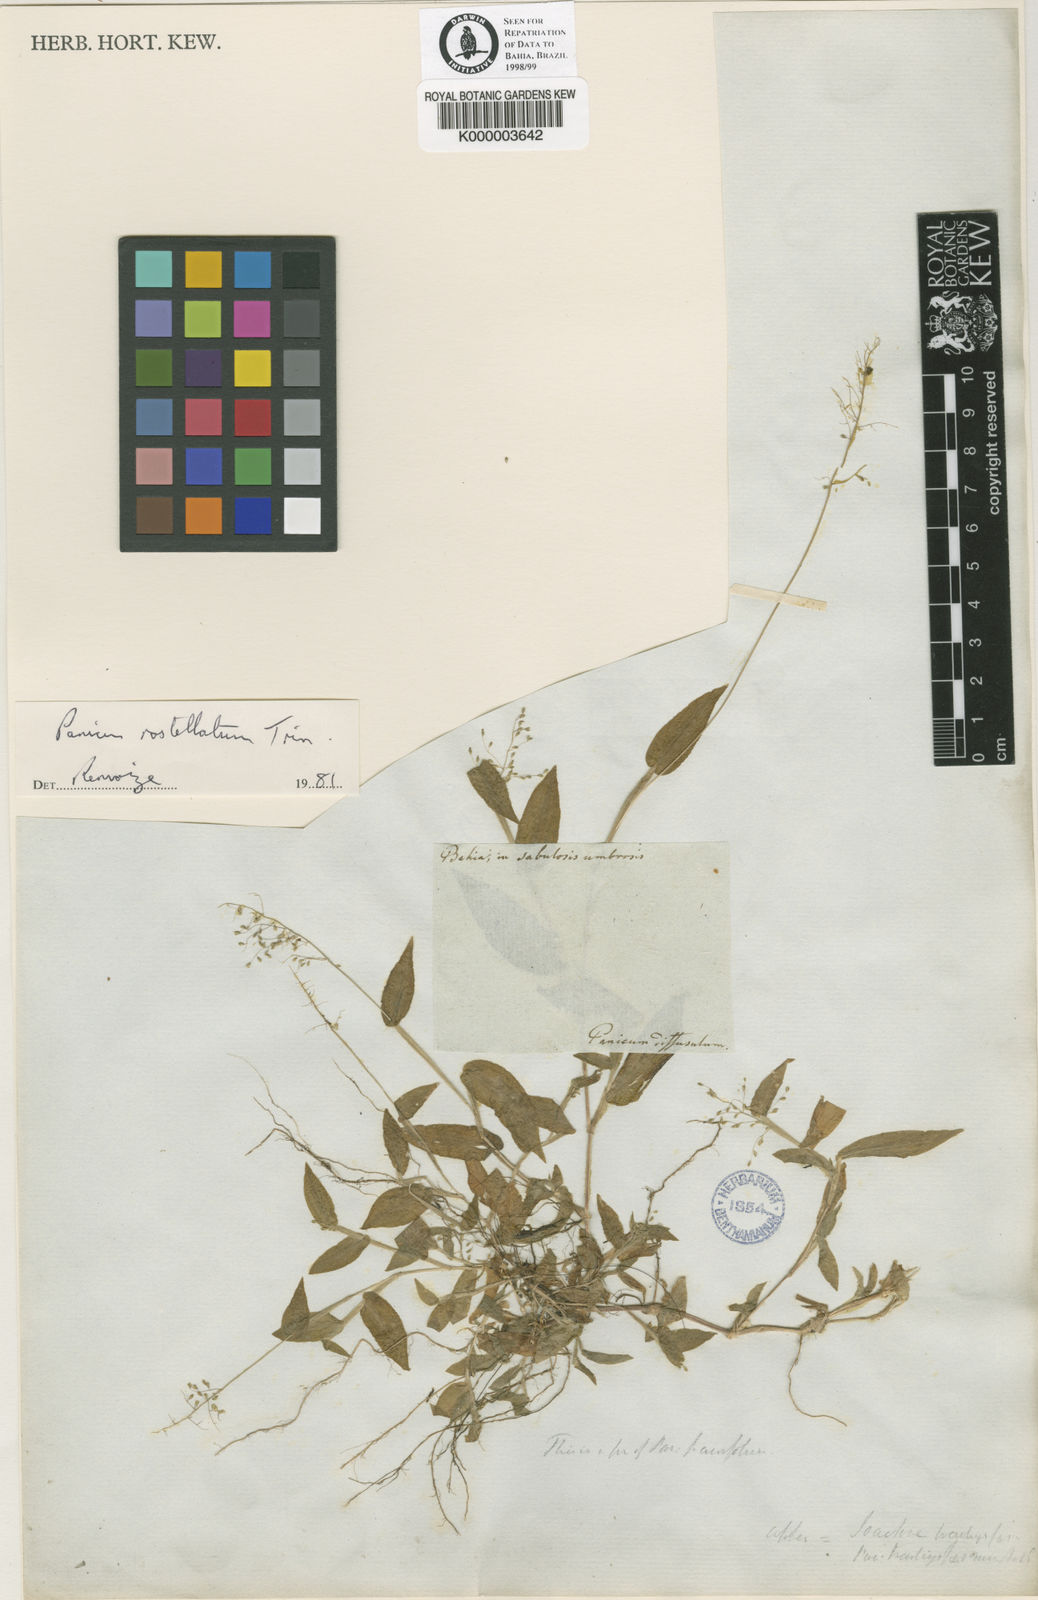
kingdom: Plantae
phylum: Tracheophyta
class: Liliopsida
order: Poales
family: Poaceae
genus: Dichanthelium
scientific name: Dichanthelium sciurotis
